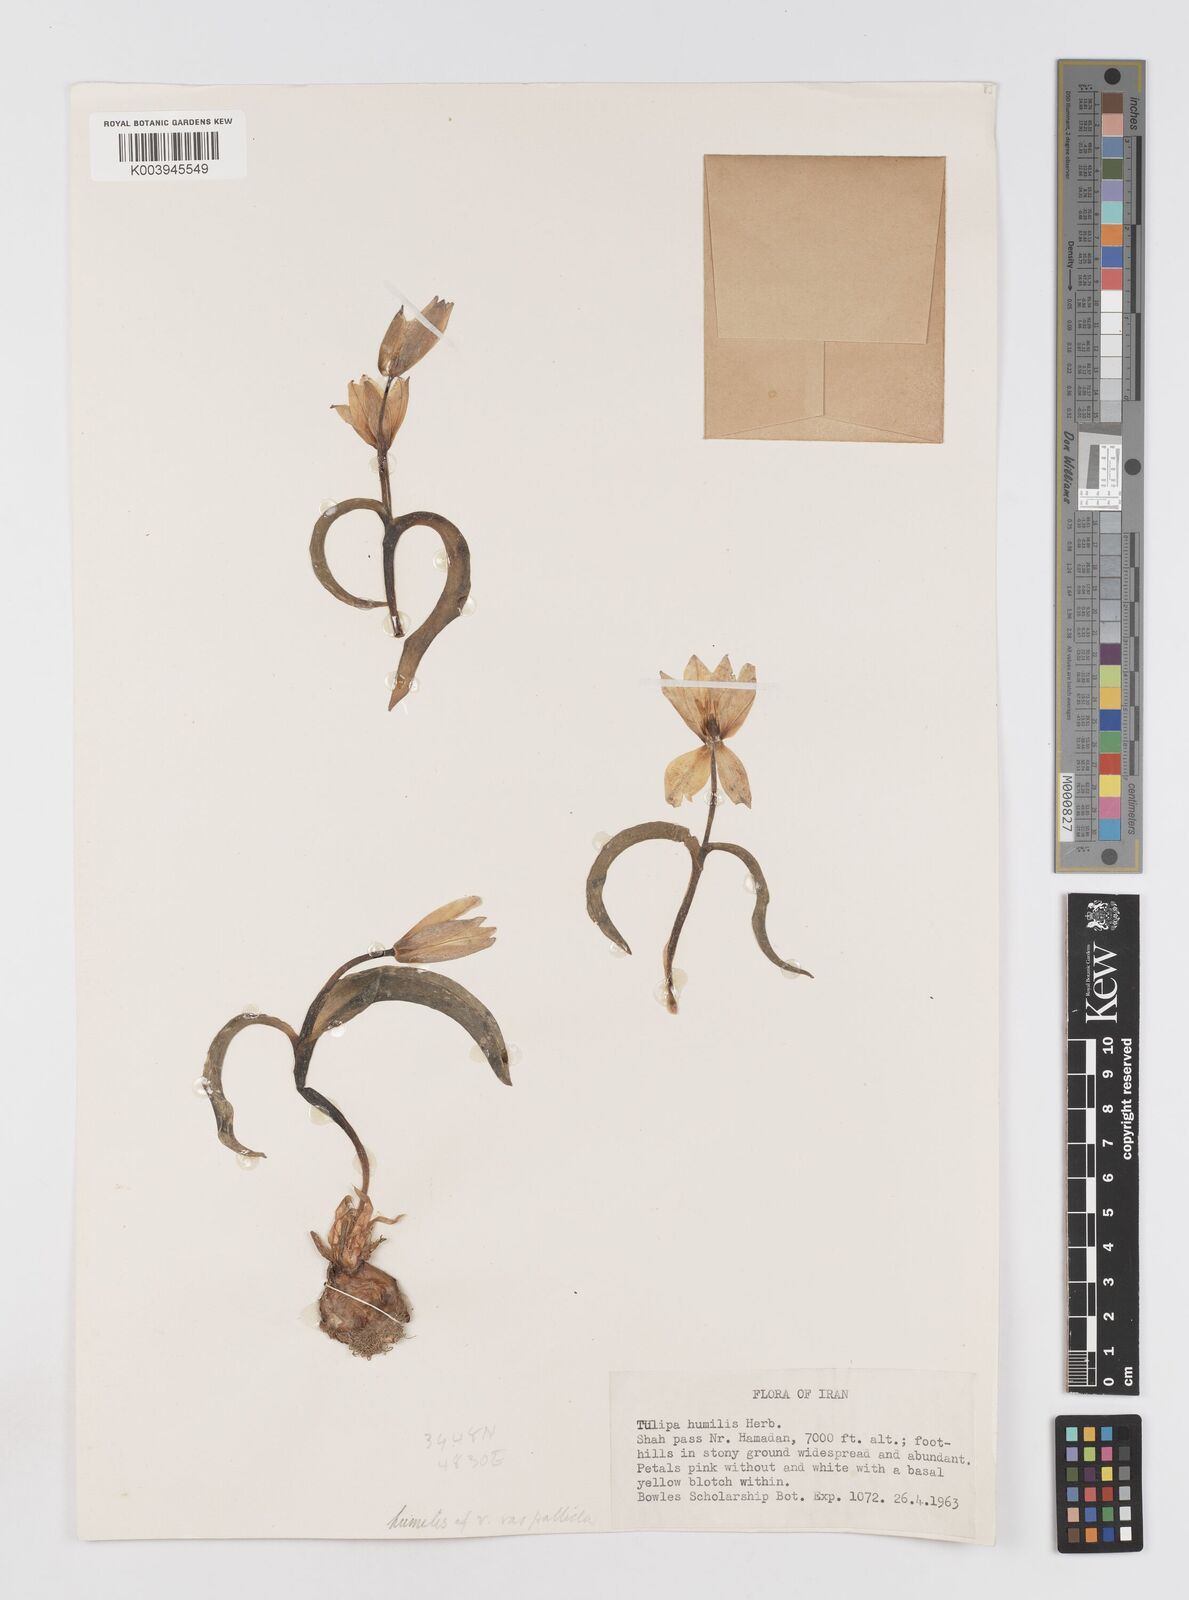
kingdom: Plantae
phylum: Tracheophyta
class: Liliopsida
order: Liliales
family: Liliaceae
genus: Tulipa
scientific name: Tulipa biflora
